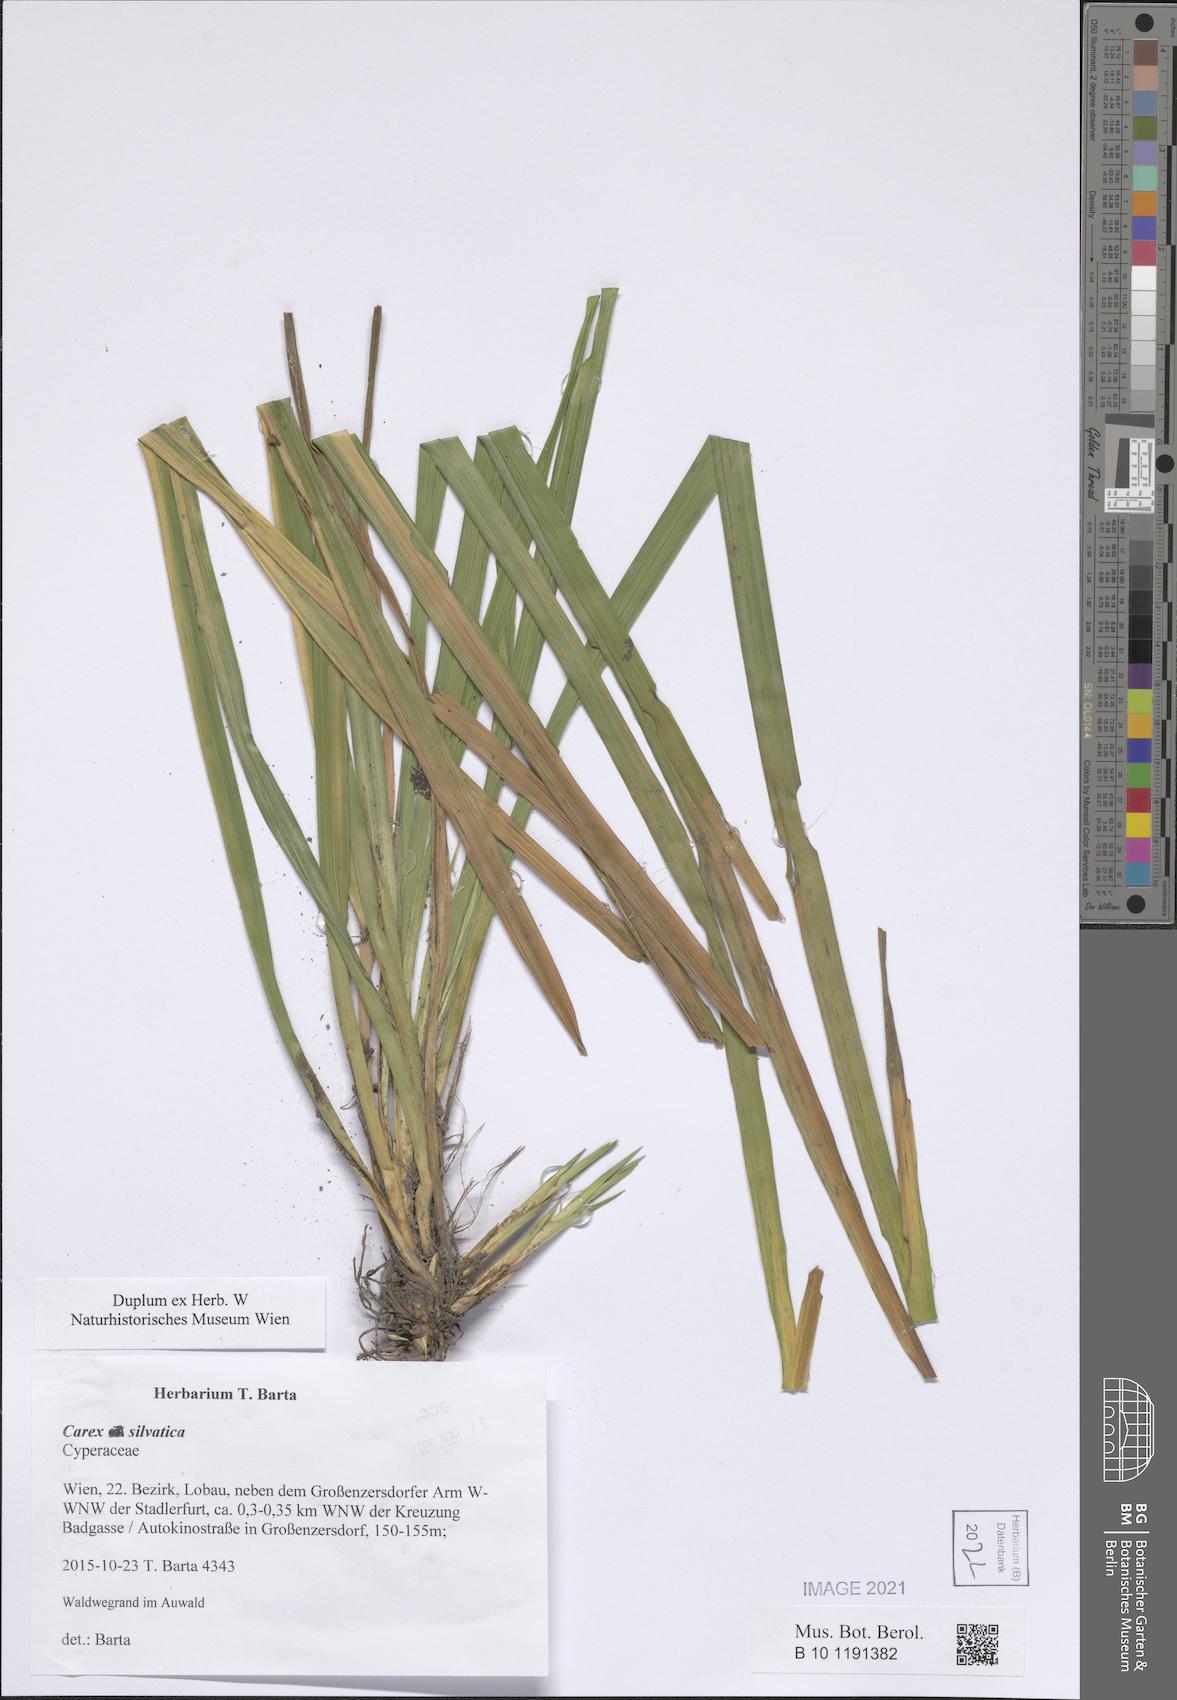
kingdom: Plantae
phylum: Tracheophyta
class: Liliopsida
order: Poales
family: Cyperaceae
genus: Carex
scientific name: Carex sylvatica
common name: Wood-sedge
